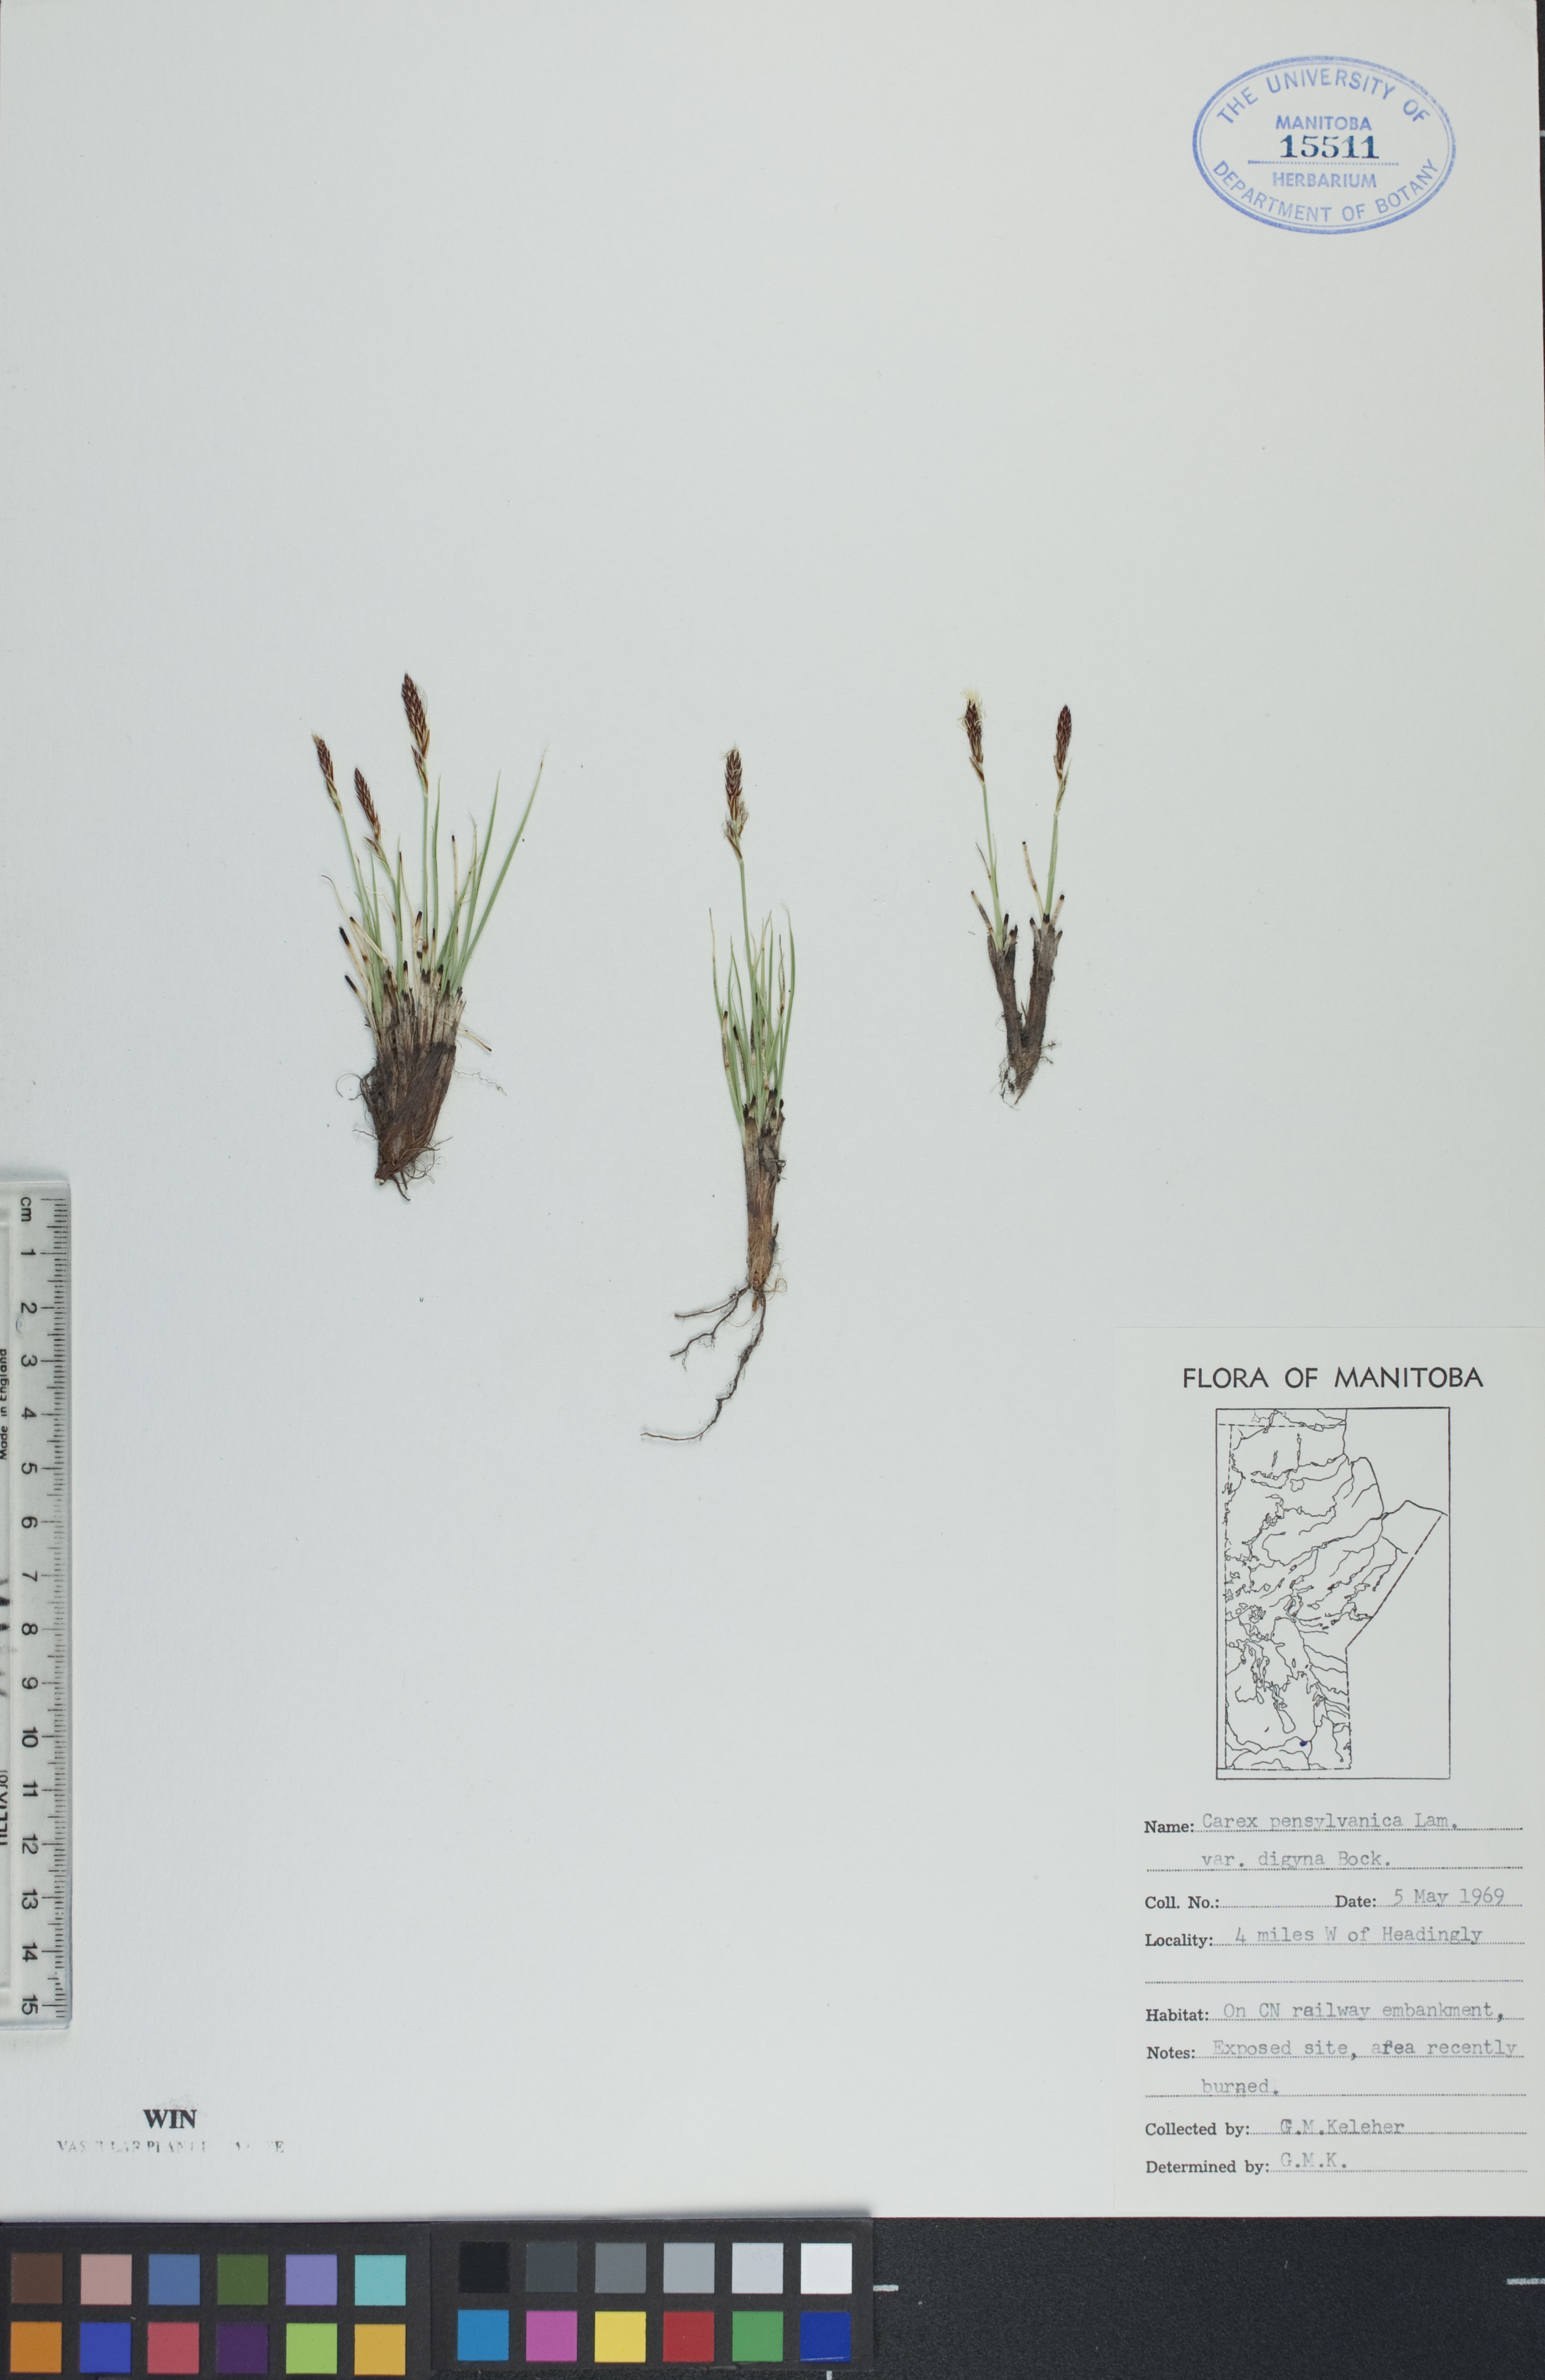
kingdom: Plantae
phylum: Tracheophyta
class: Liliopsida
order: Poales
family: Cyperaceae
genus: Carex
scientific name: Carex inops
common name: Long-stolon sedge
